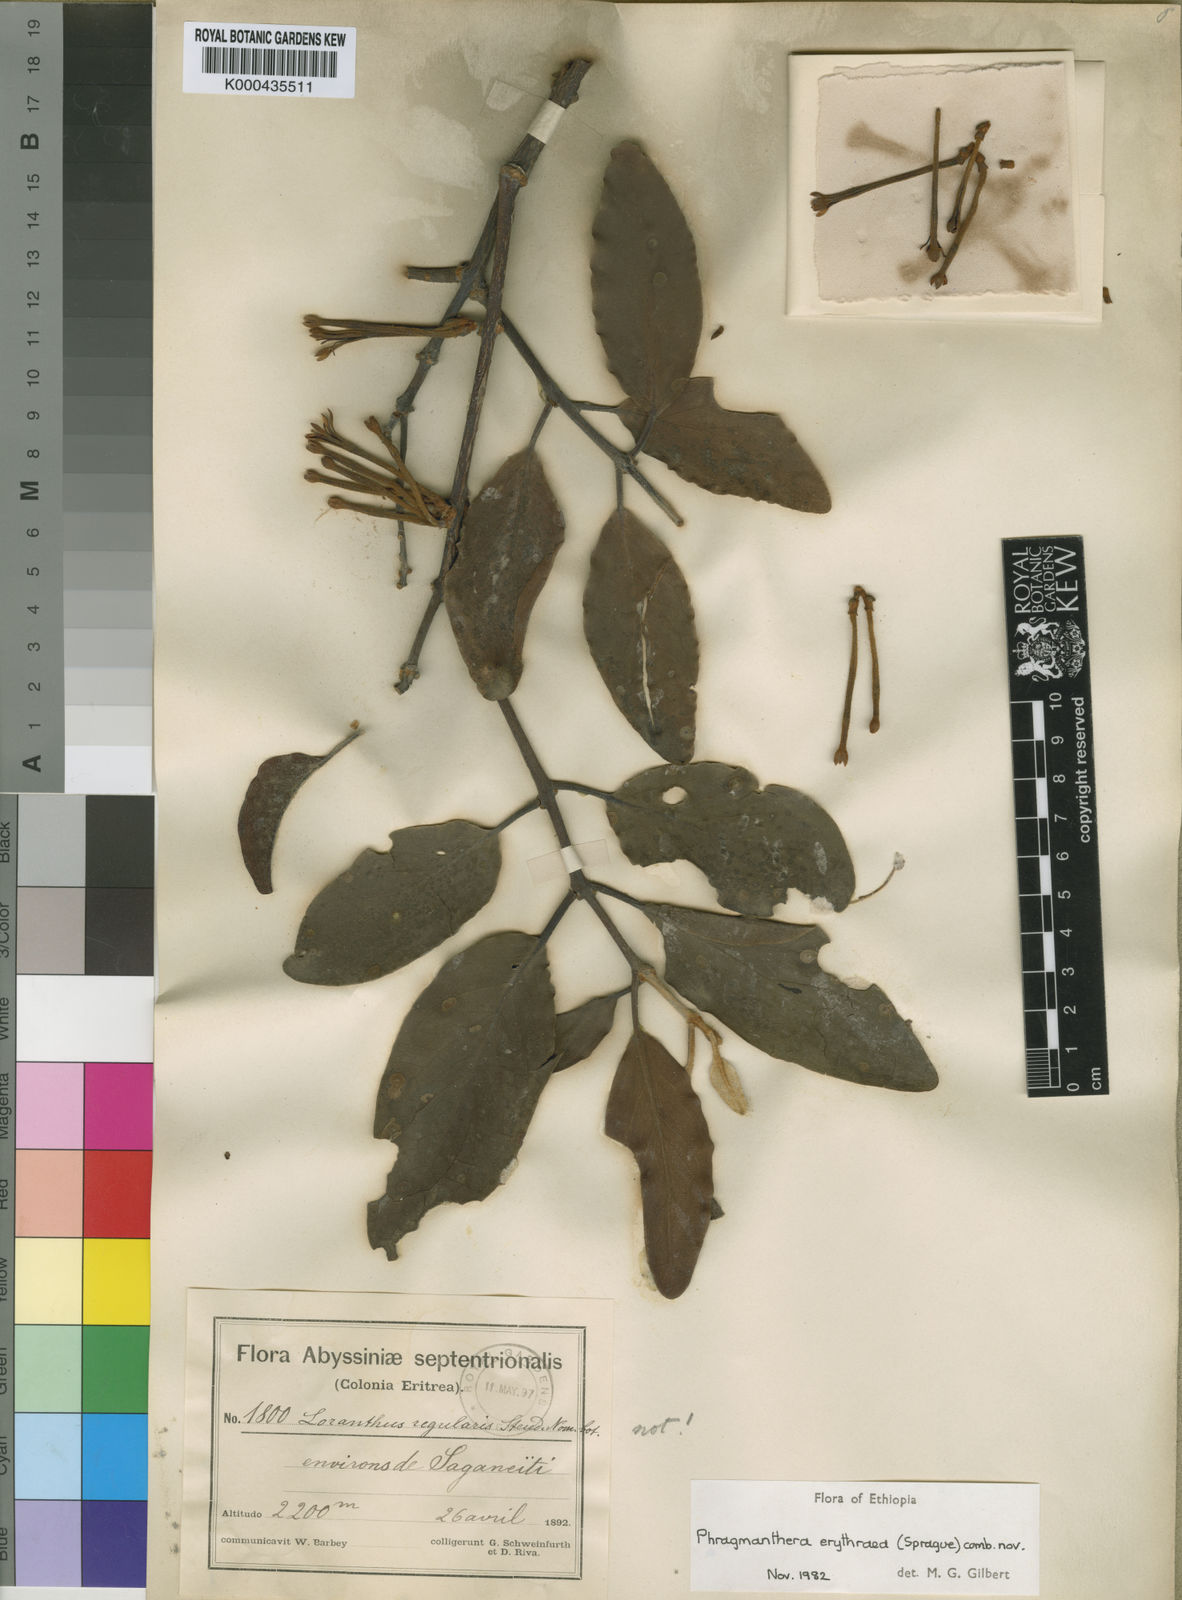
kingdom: Plantae
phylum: Tracheophyta
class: Magnoliopsida
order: Santalales
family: Loranthaceae
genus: Phragmanthera
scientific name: Phragmanthera erythraea
